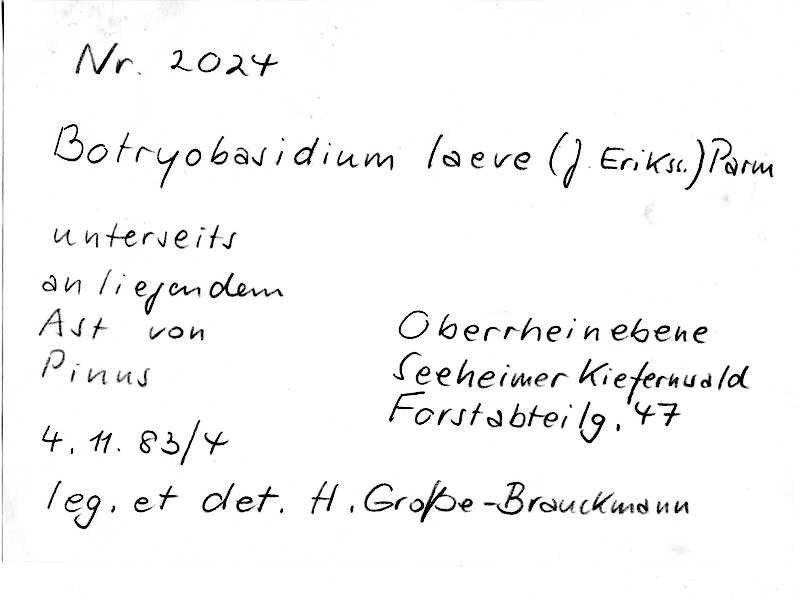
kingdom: Plantae
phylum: Tracheophyta
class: Pinopsida
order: Pinales
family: Pinaceae
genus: Pinus
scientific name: Pinus
